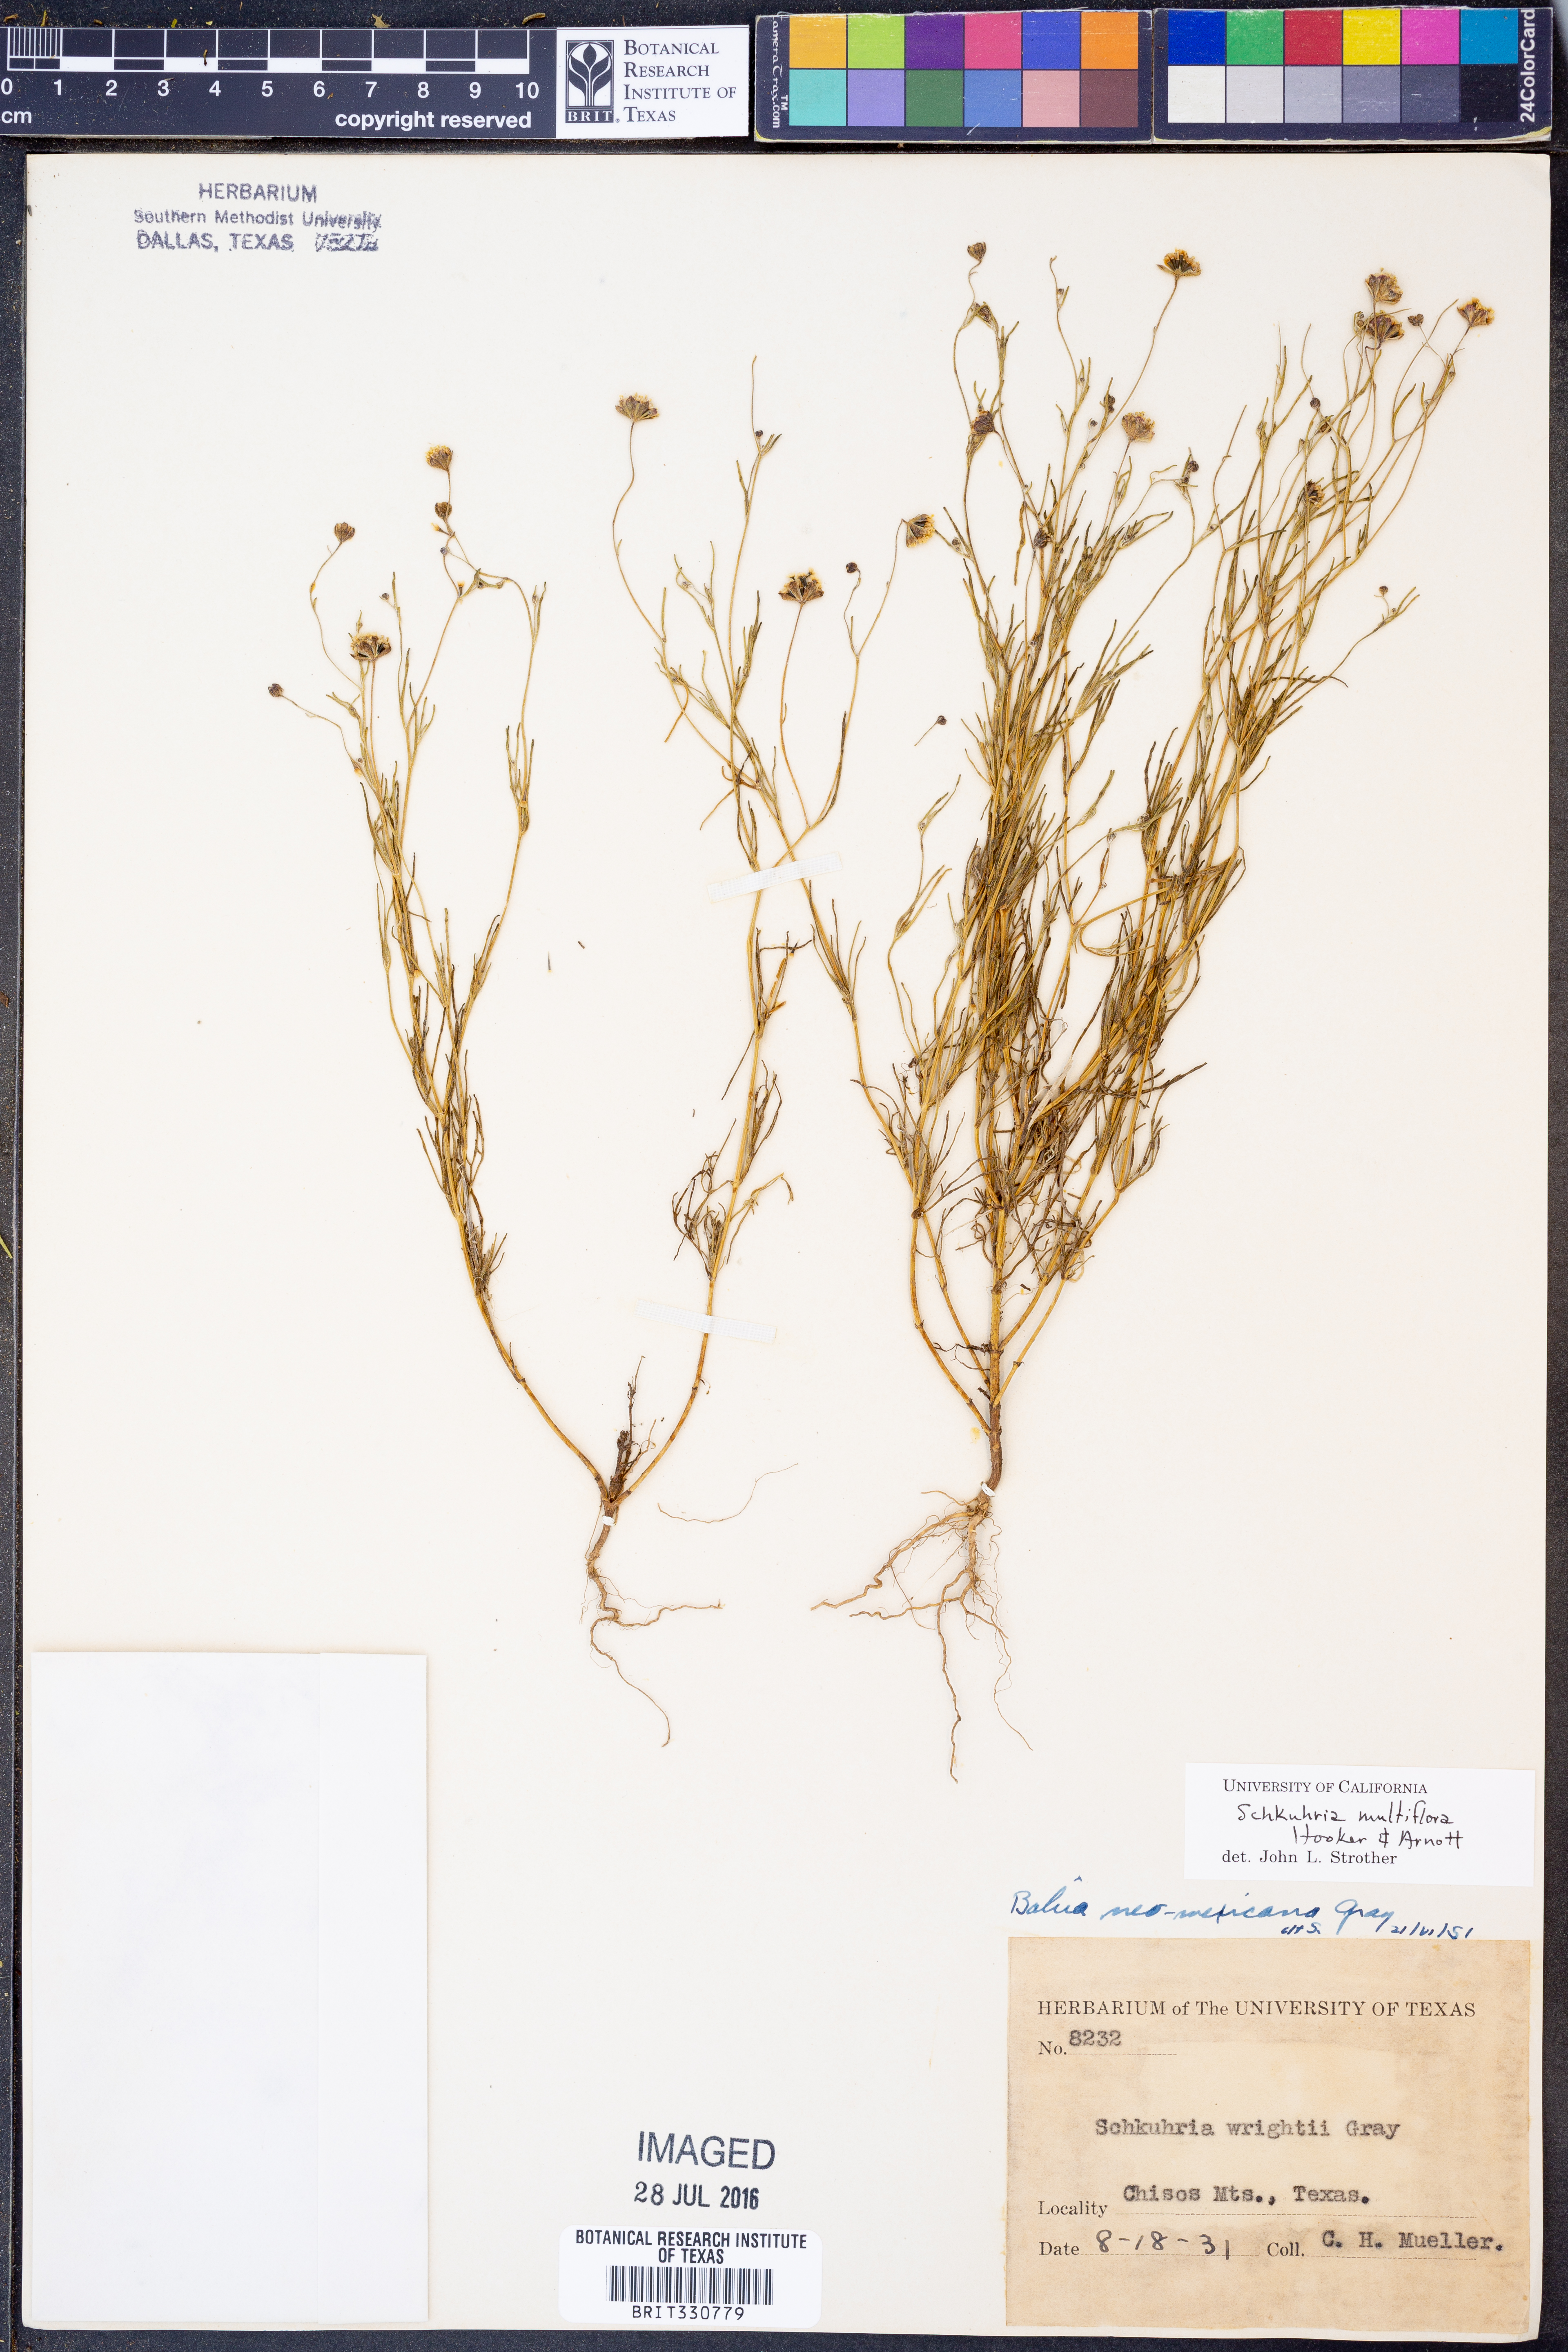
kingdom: Plantae
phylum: Tracheophyta
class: Magnoliopsida
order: Asterales
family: Asteraceae
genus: Picradeniopsis
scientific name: Picradeniopsis multiflora
